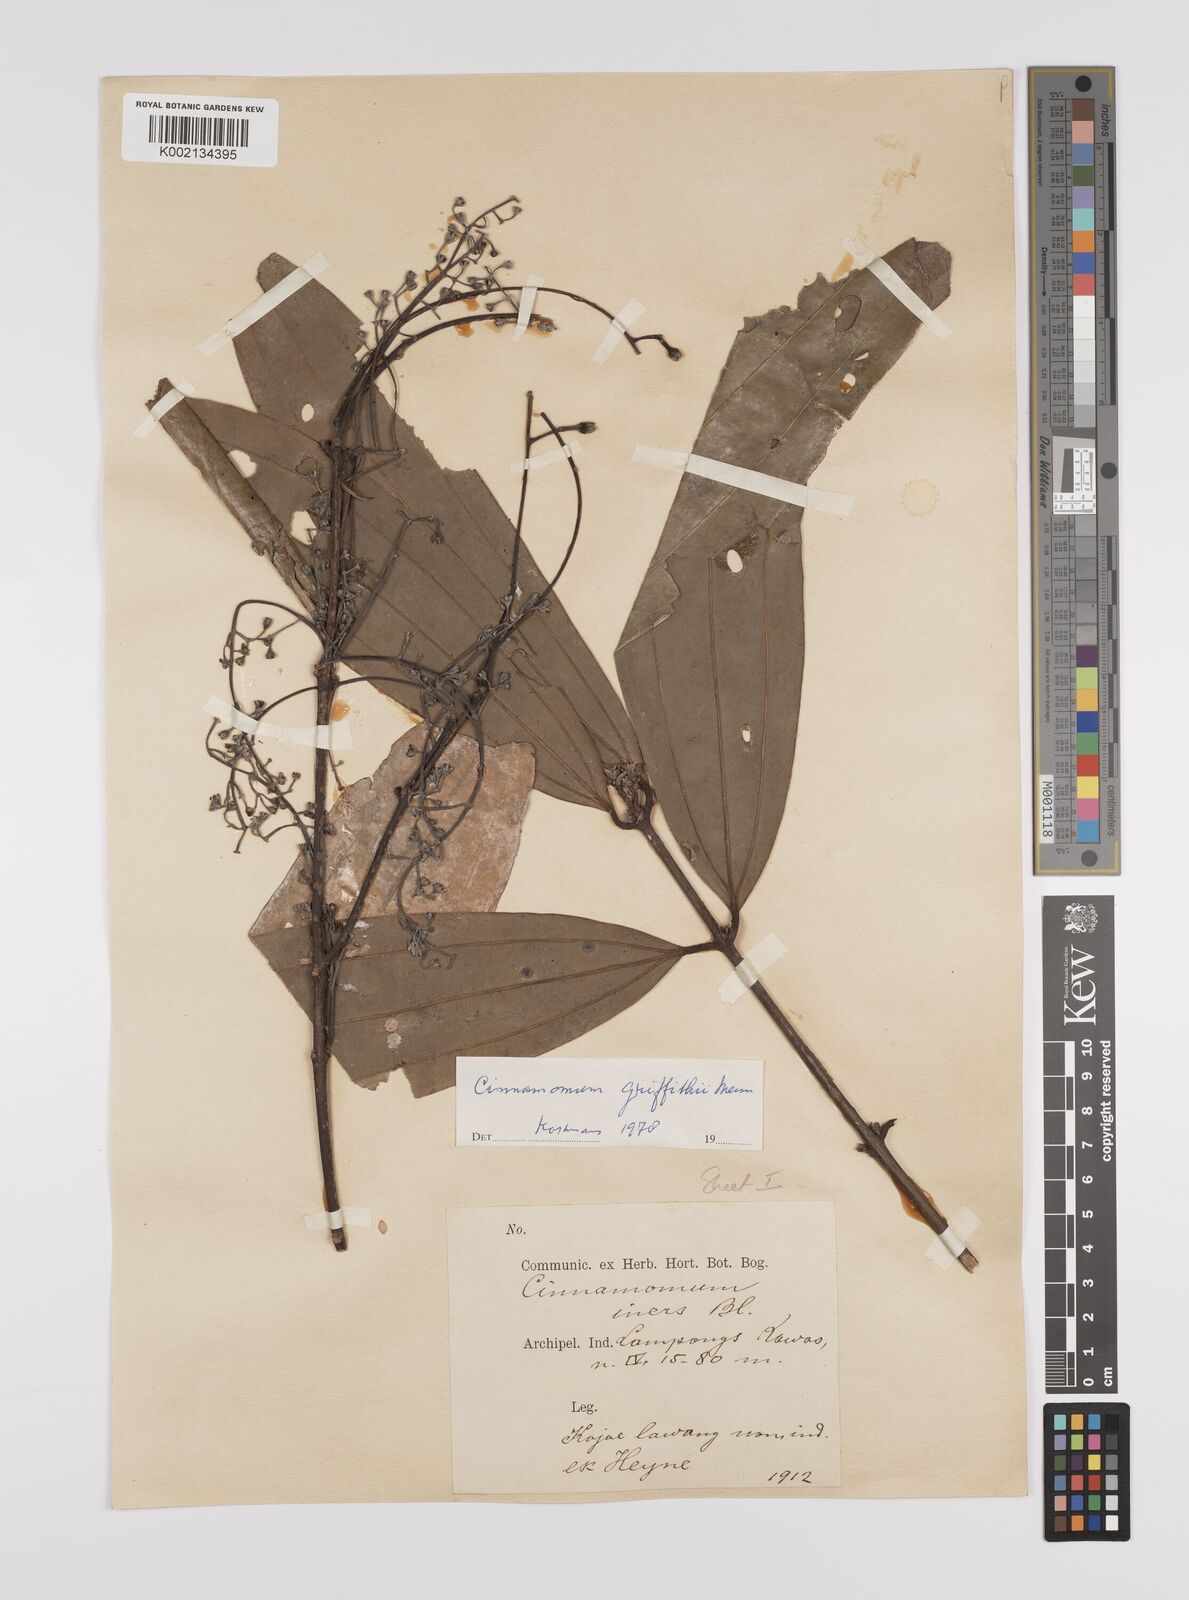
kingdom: Plantae
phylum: Tracheophyta
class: Magnoliopsida
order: Laurales
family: Lauraceae
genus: Cinnamomum
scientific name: Cinnamomum iners
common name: Wild cinnamon
